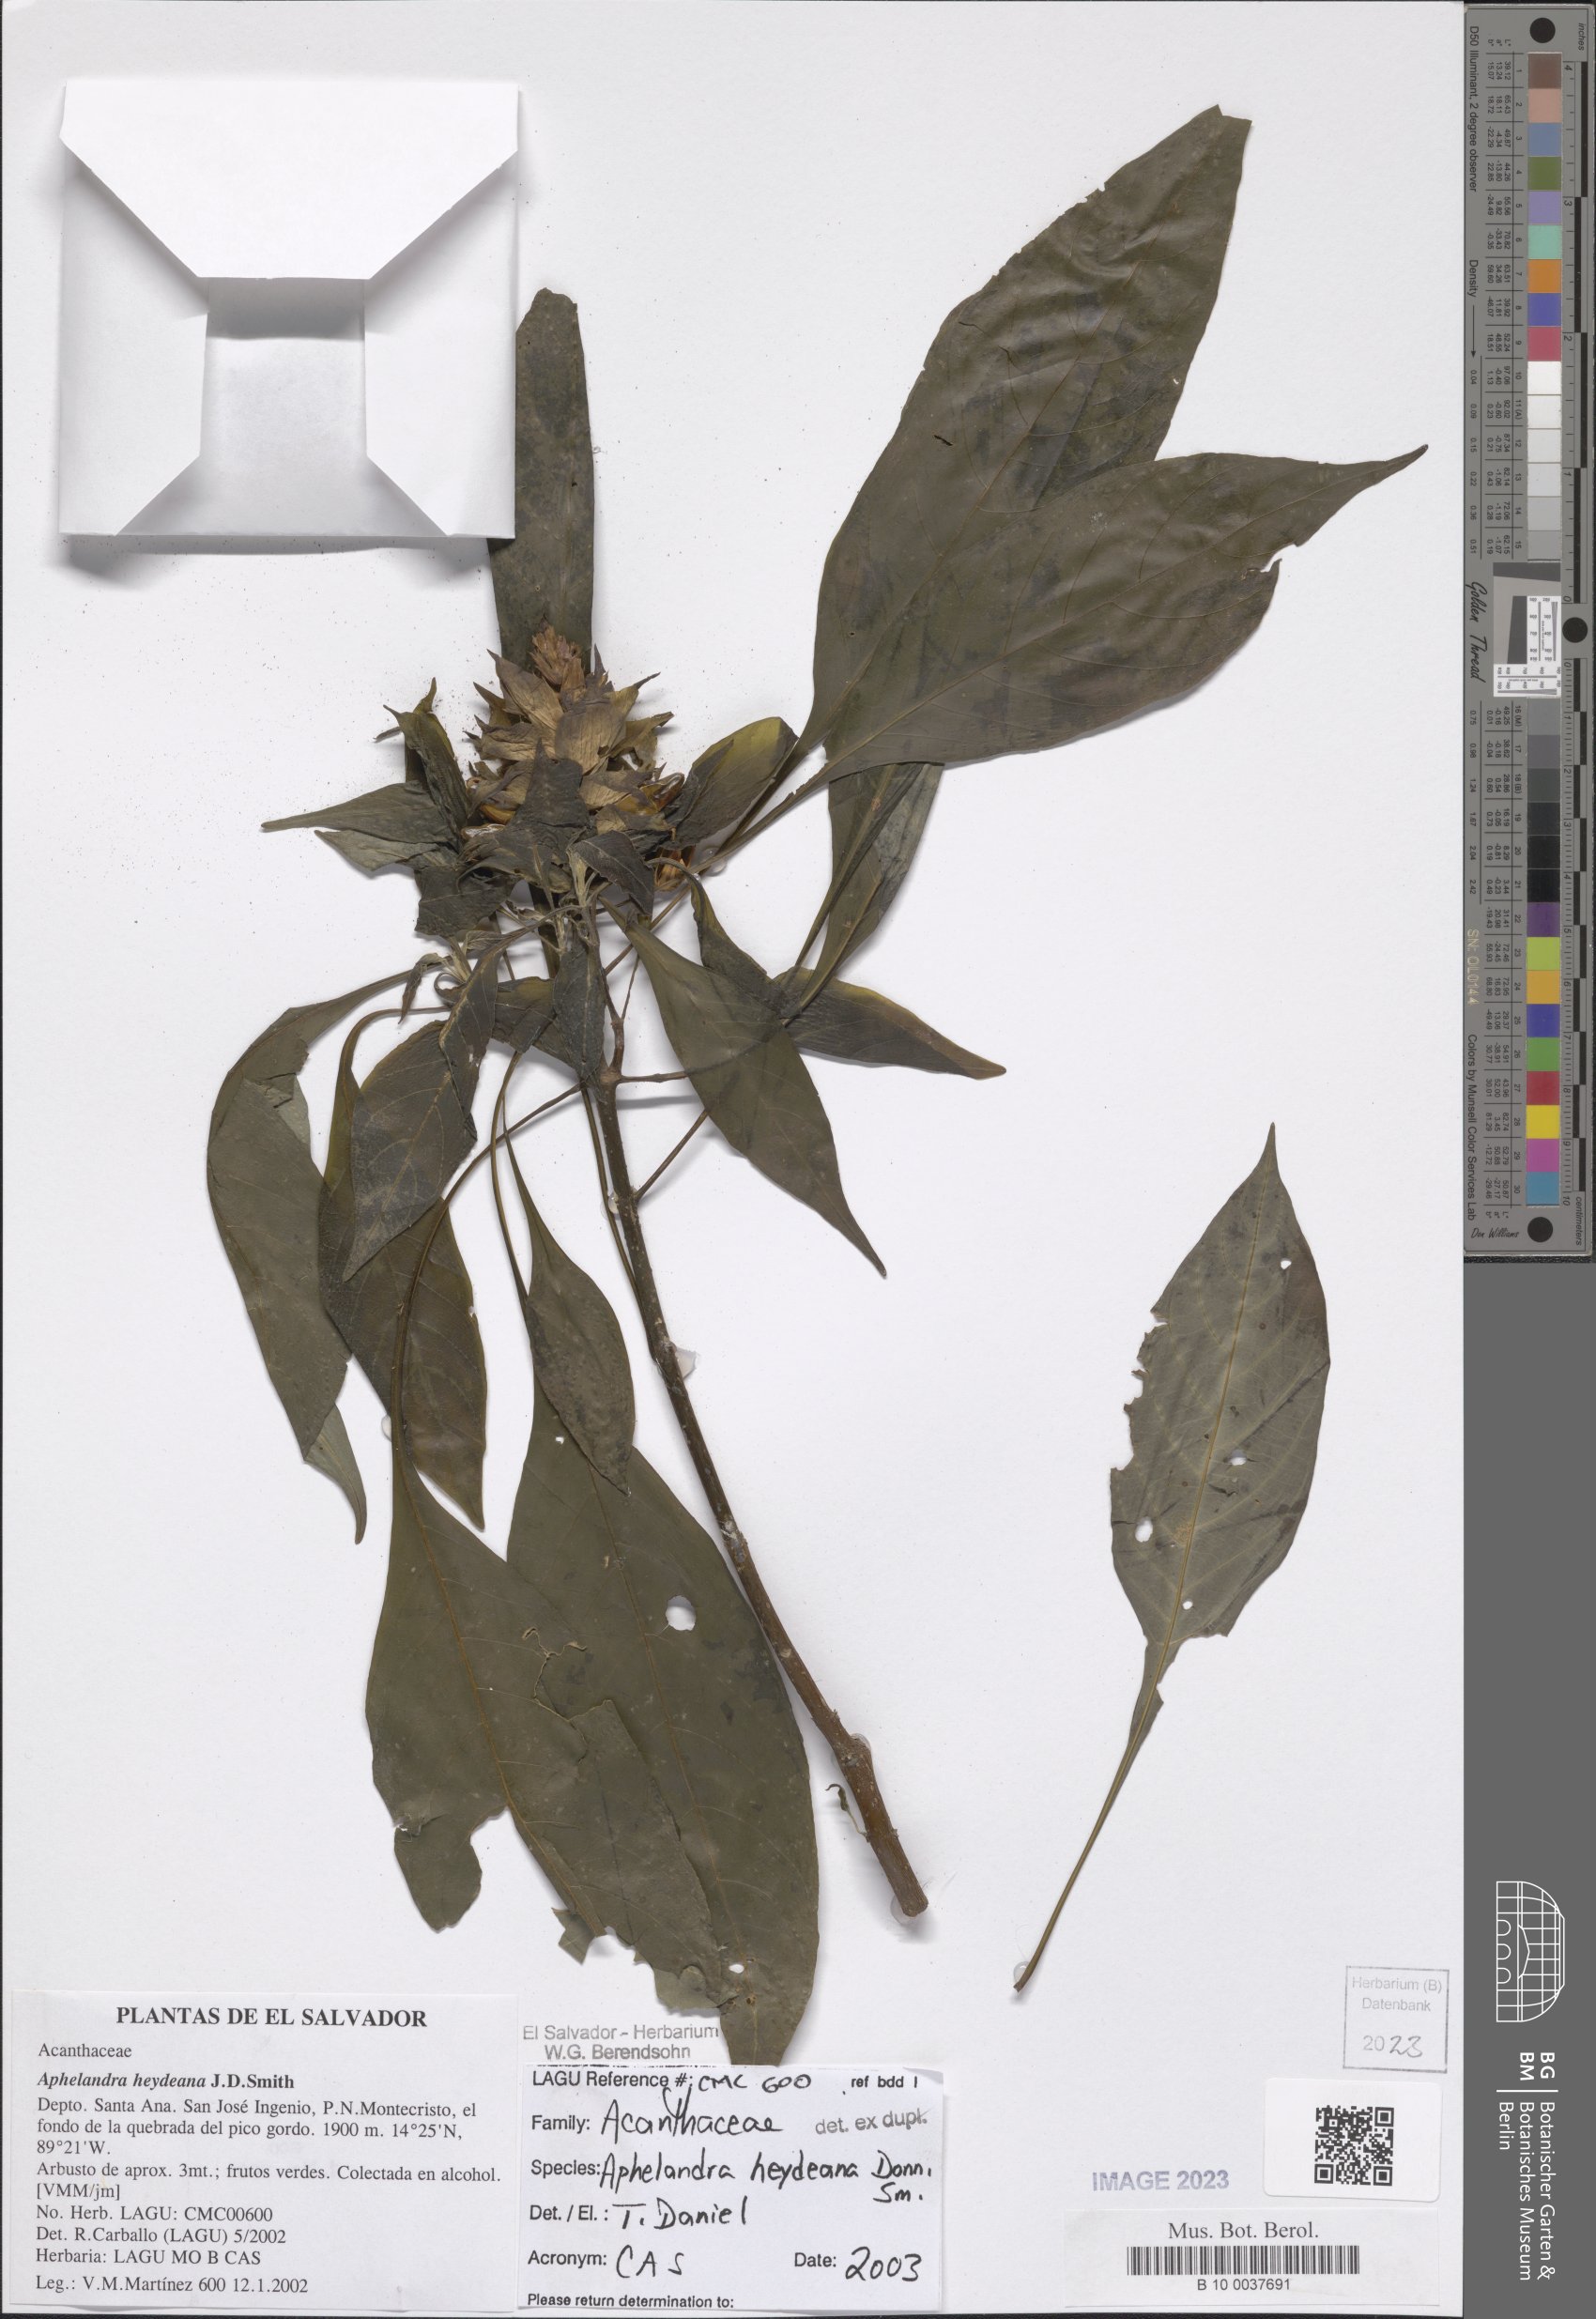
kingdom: Plantae
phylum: Tracheophyta
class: Magnoliopsida
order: Lamiales
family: Acanthaceae
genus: Aphelandra
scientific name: Aphelandra heydeana
